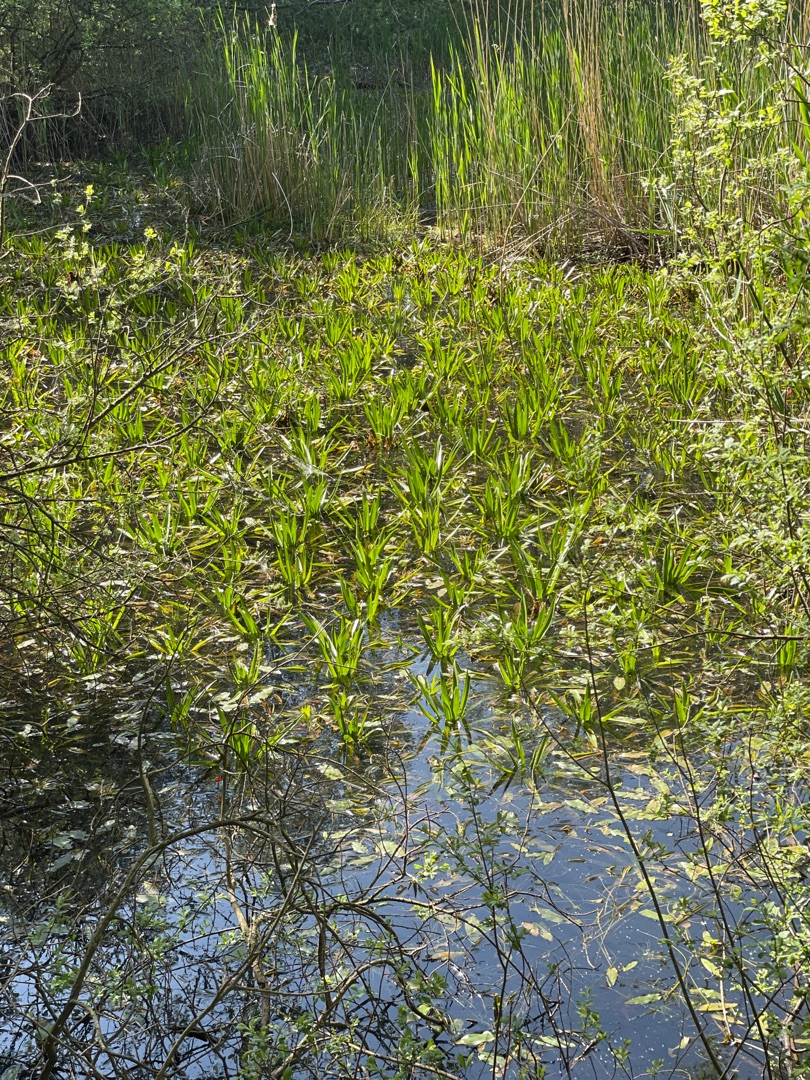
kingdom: Plantae
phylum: Tracheophyta
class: Liliopsida
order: Alismatales
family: Hydrocharitaceae
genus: Stratiotes
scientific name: Stratiotes aloides
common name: Krebseklo
